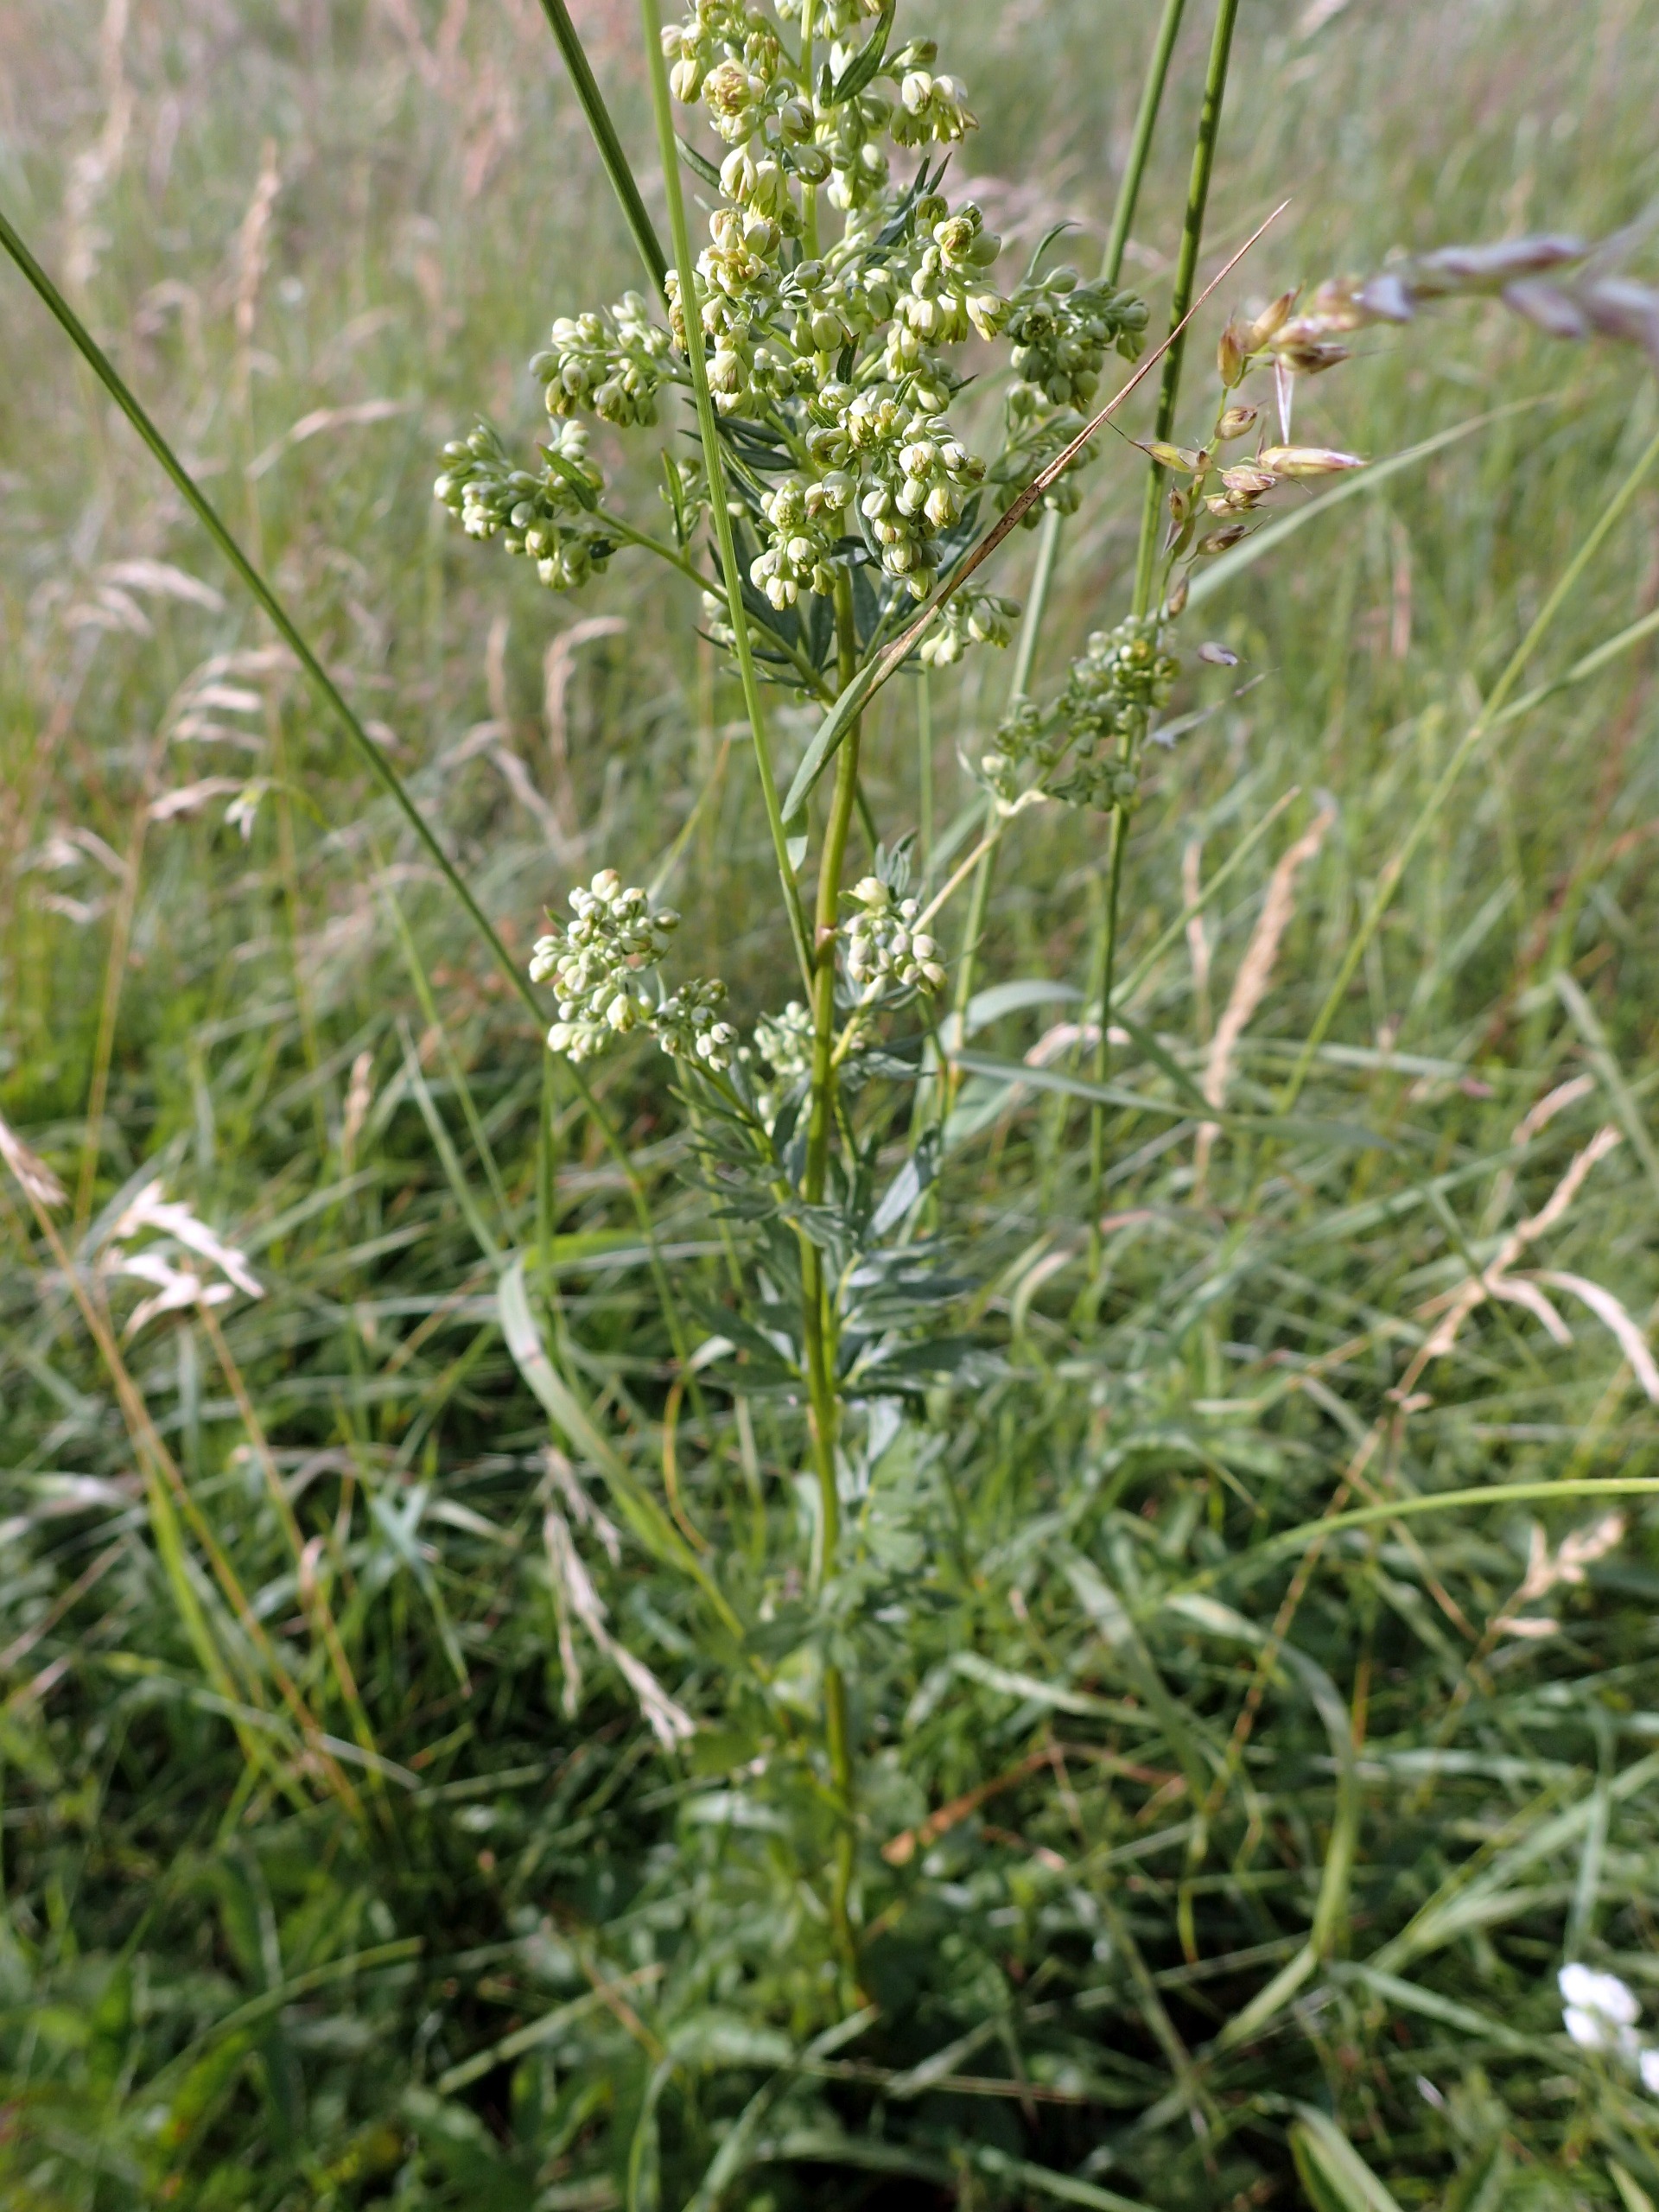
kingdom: Plantae
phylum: Tracheophyta
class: Magnoliopsida
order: Ranunculales
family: Ranunculaceae
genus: Thalictrum
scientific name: Thalictrum simplex
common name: Rank frøstjerne
